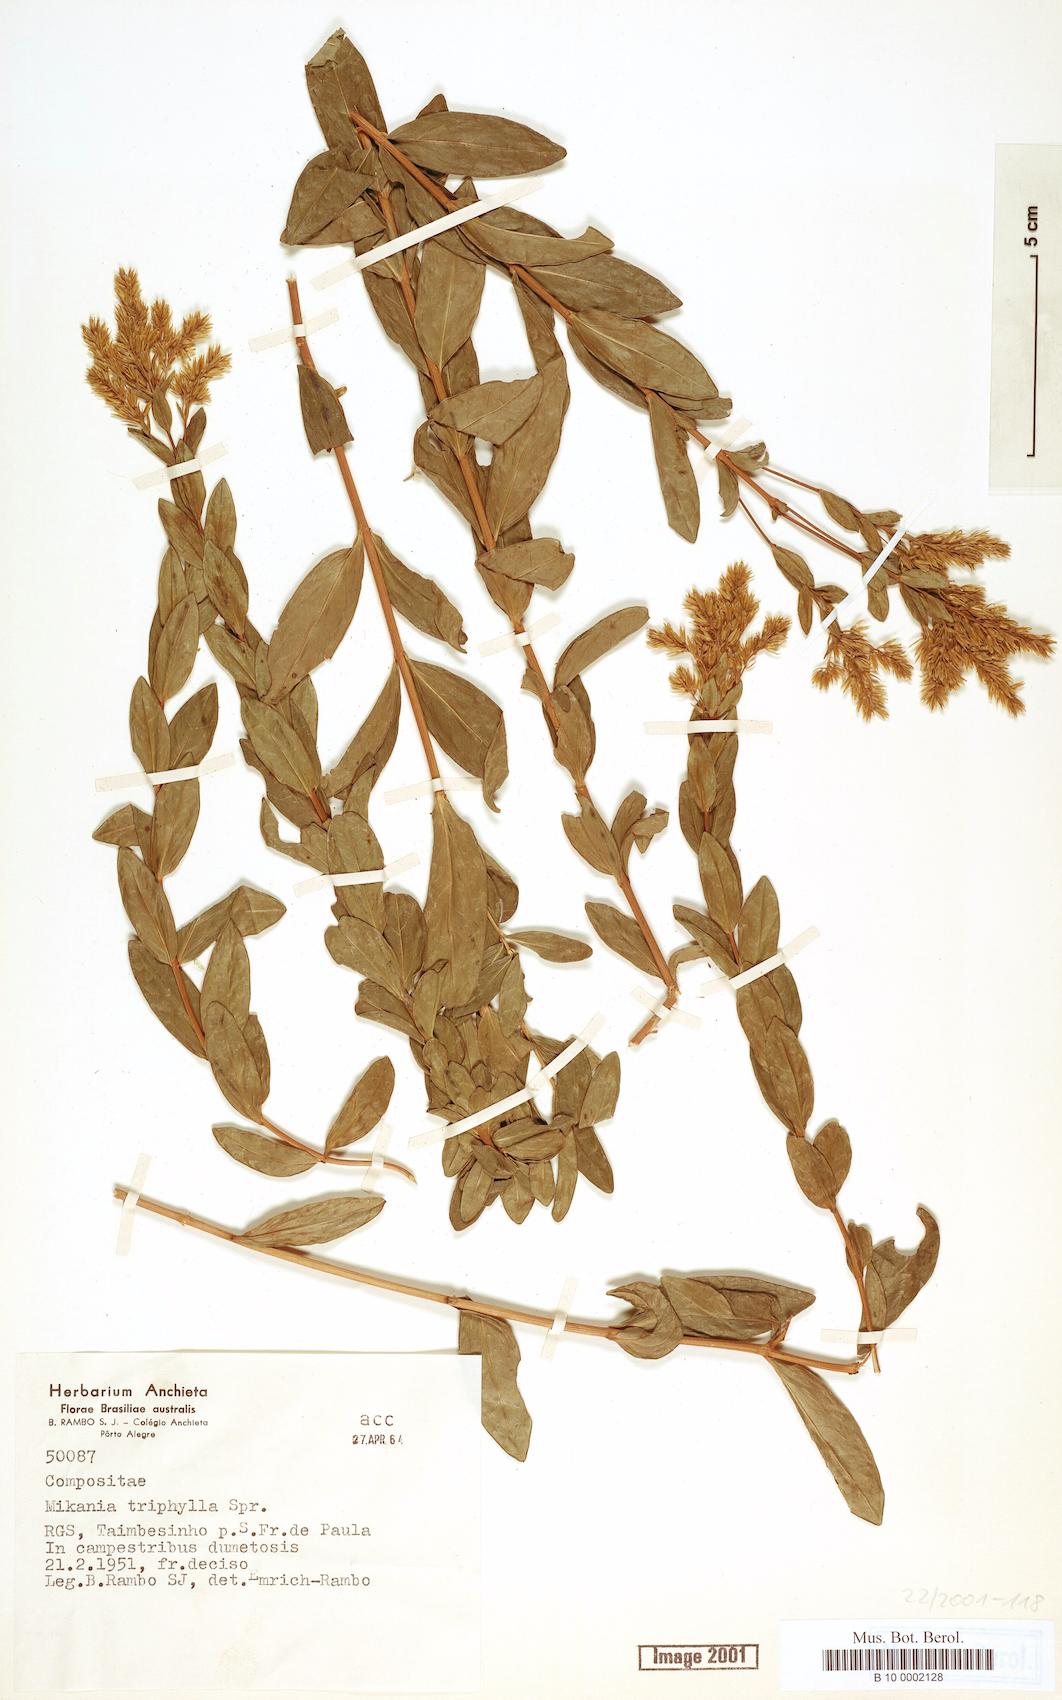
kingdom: Plantae
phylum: Tracheophyta
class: Magnoliopsida
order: Asterales
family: Asteraceae
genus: Mikania
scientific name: Mikania triphylla
